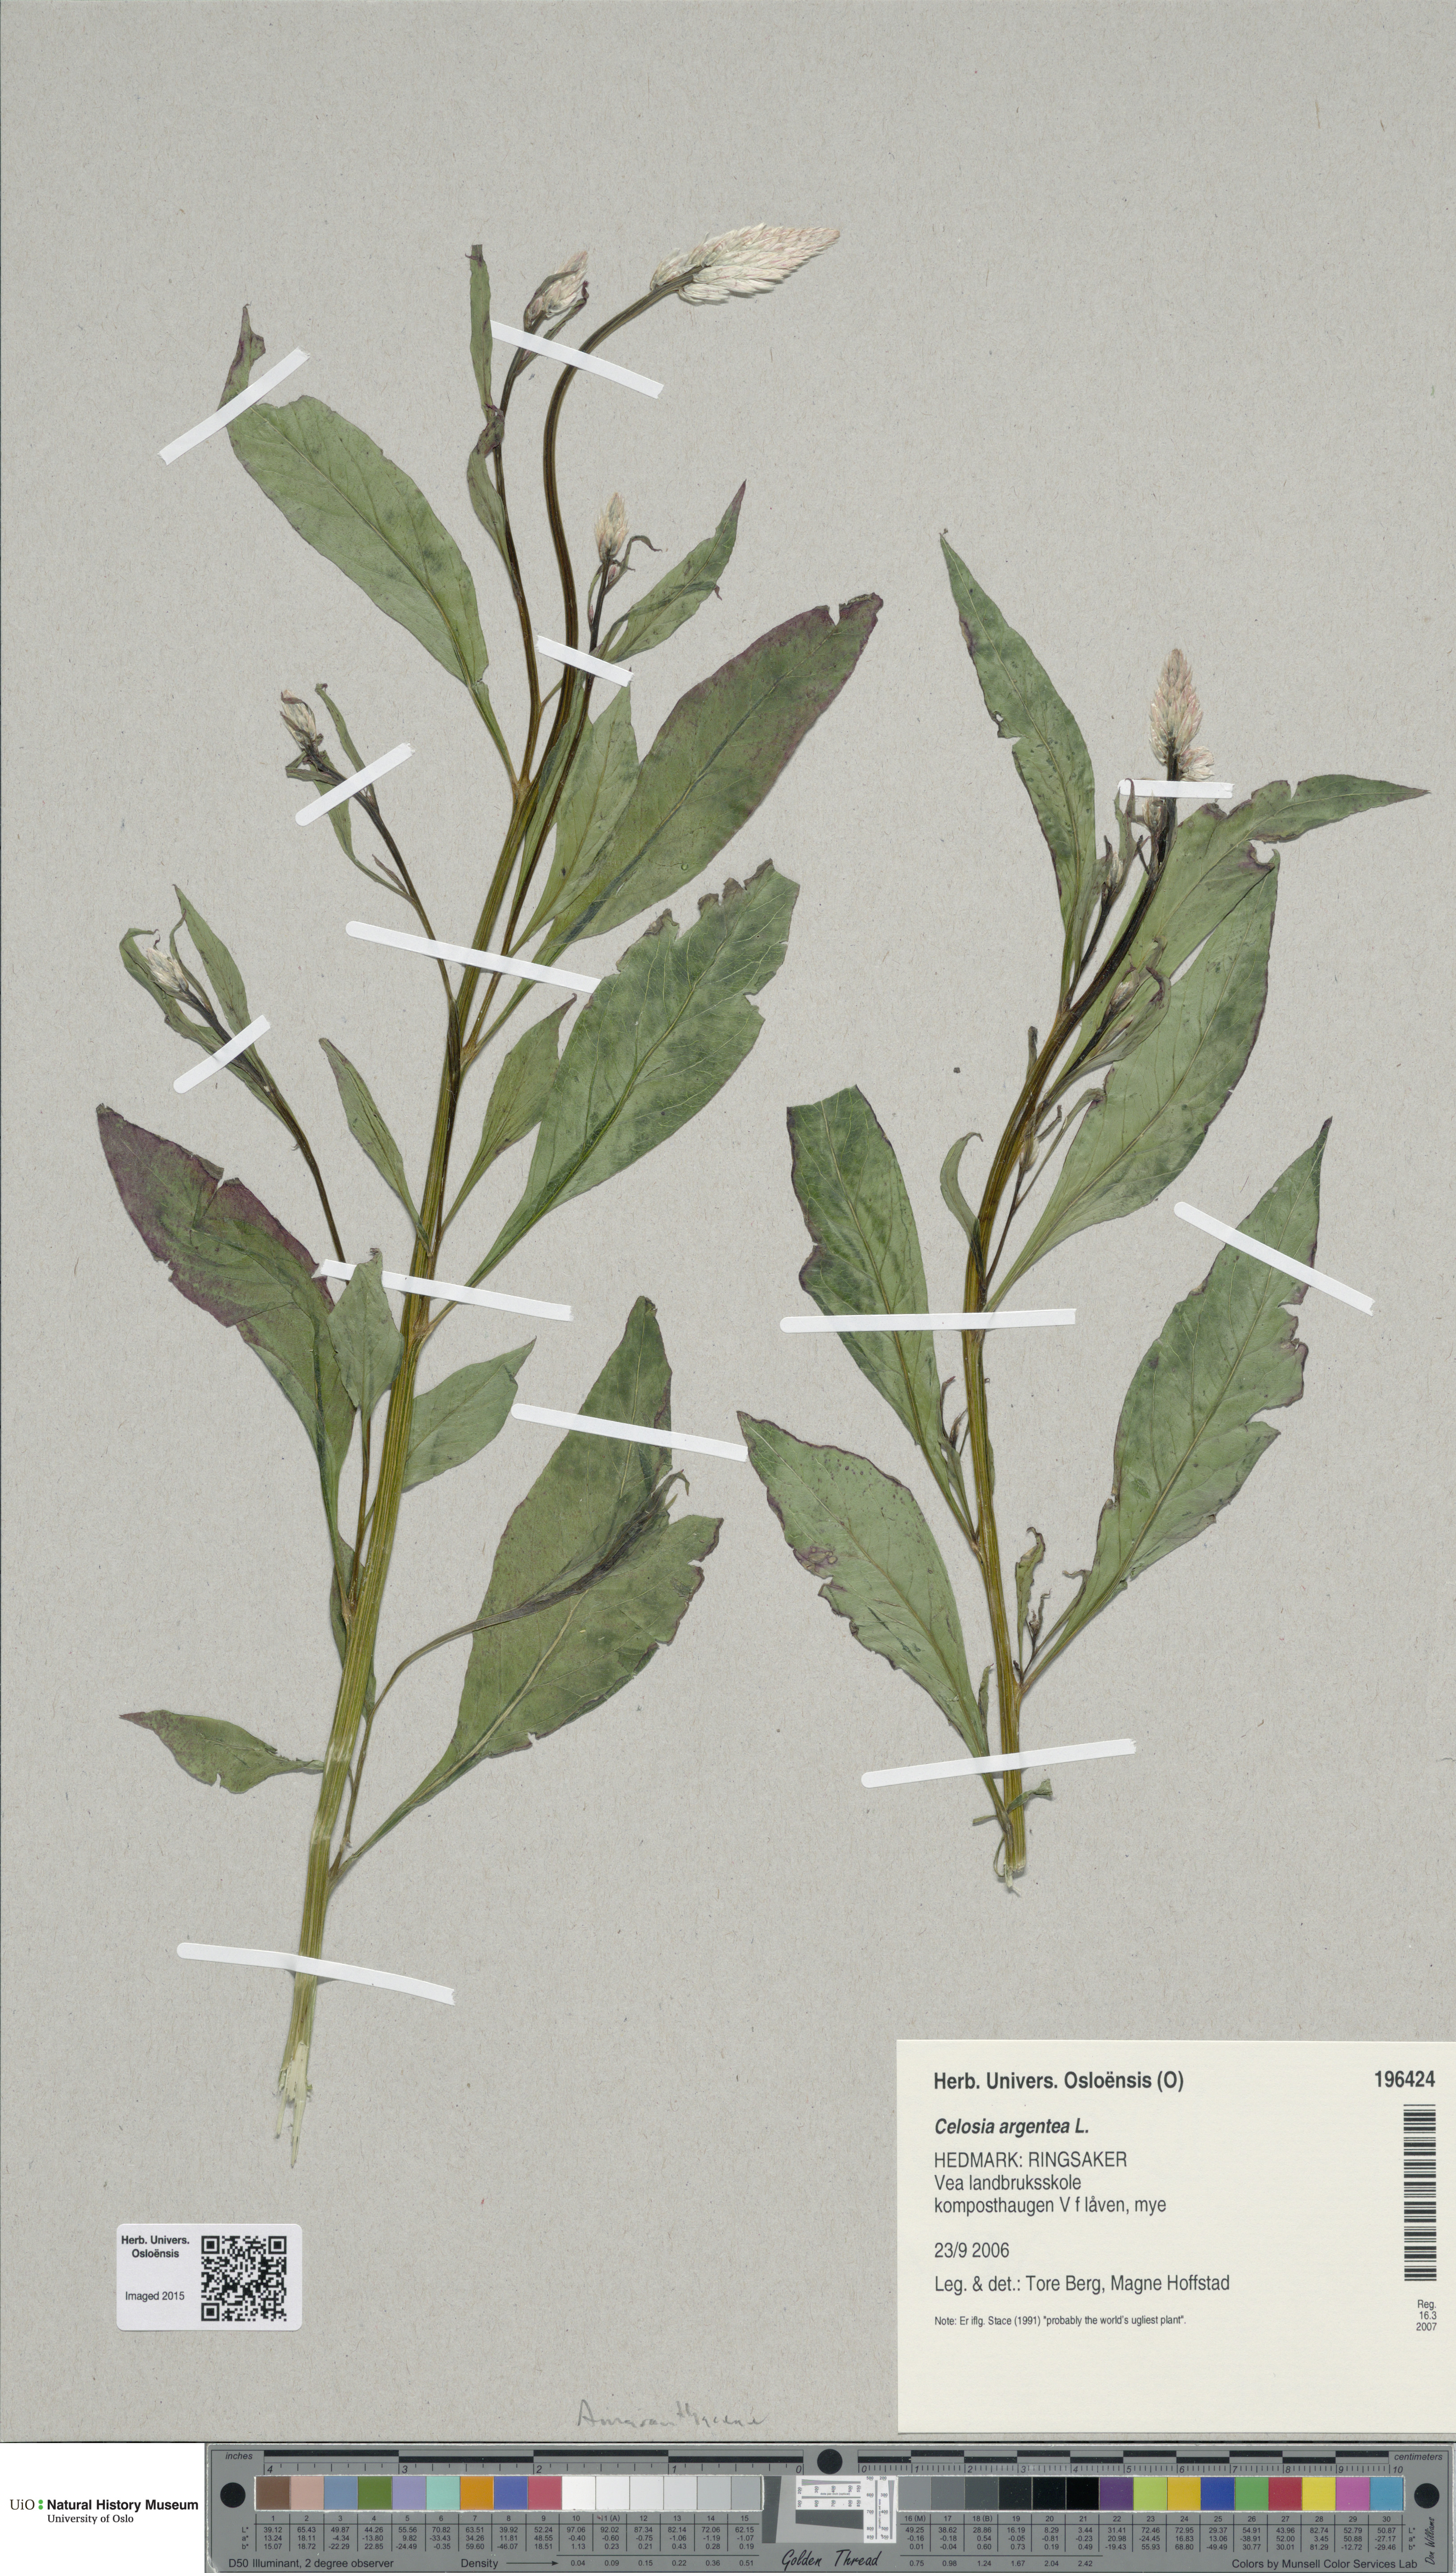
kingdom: Plantae
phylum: Tracheophyta
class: Magnoliopsida
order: Caryophyllales
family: Amaranthaceae
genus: Celosia
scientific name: Celosia argentea
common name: Feather cockscomb
